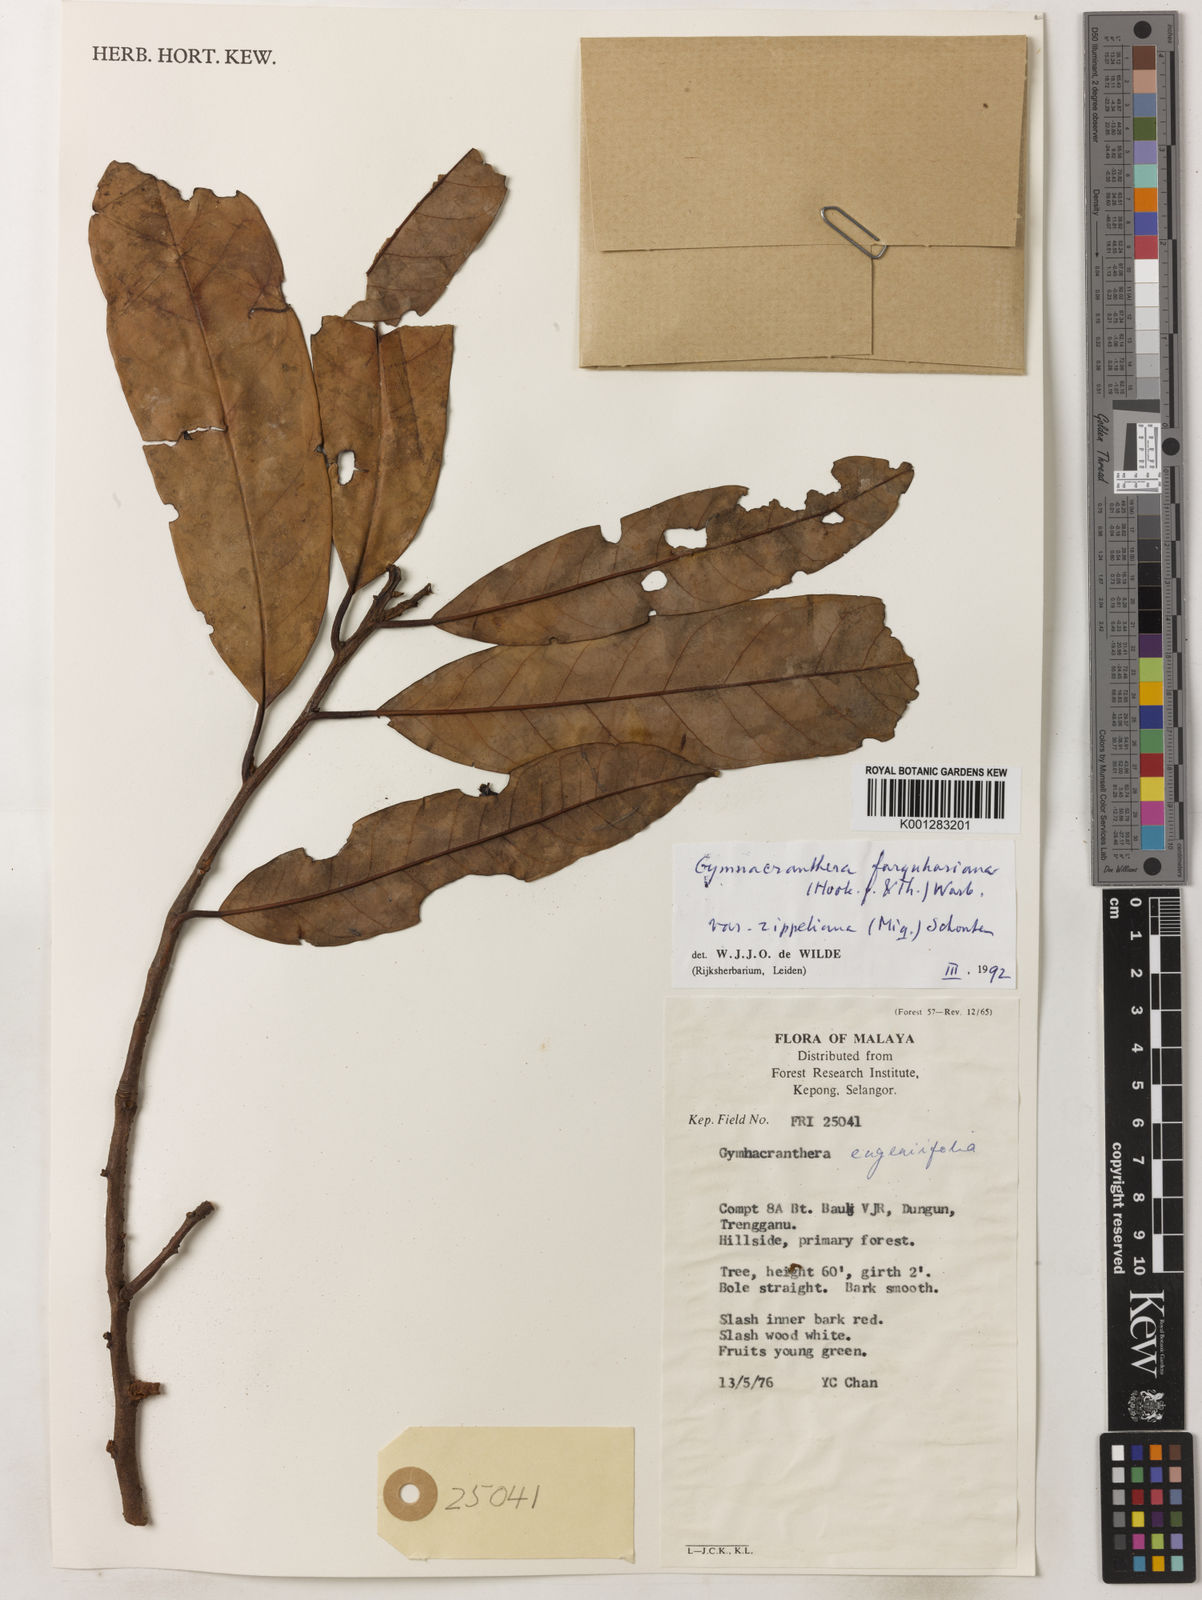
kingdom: Plantae
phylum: Tracheophyta
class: Magnoliopsida
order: Magnoliales
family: Myristicaceae
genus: Gymnacranthera
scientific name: Gymnacranthera farquhariana
